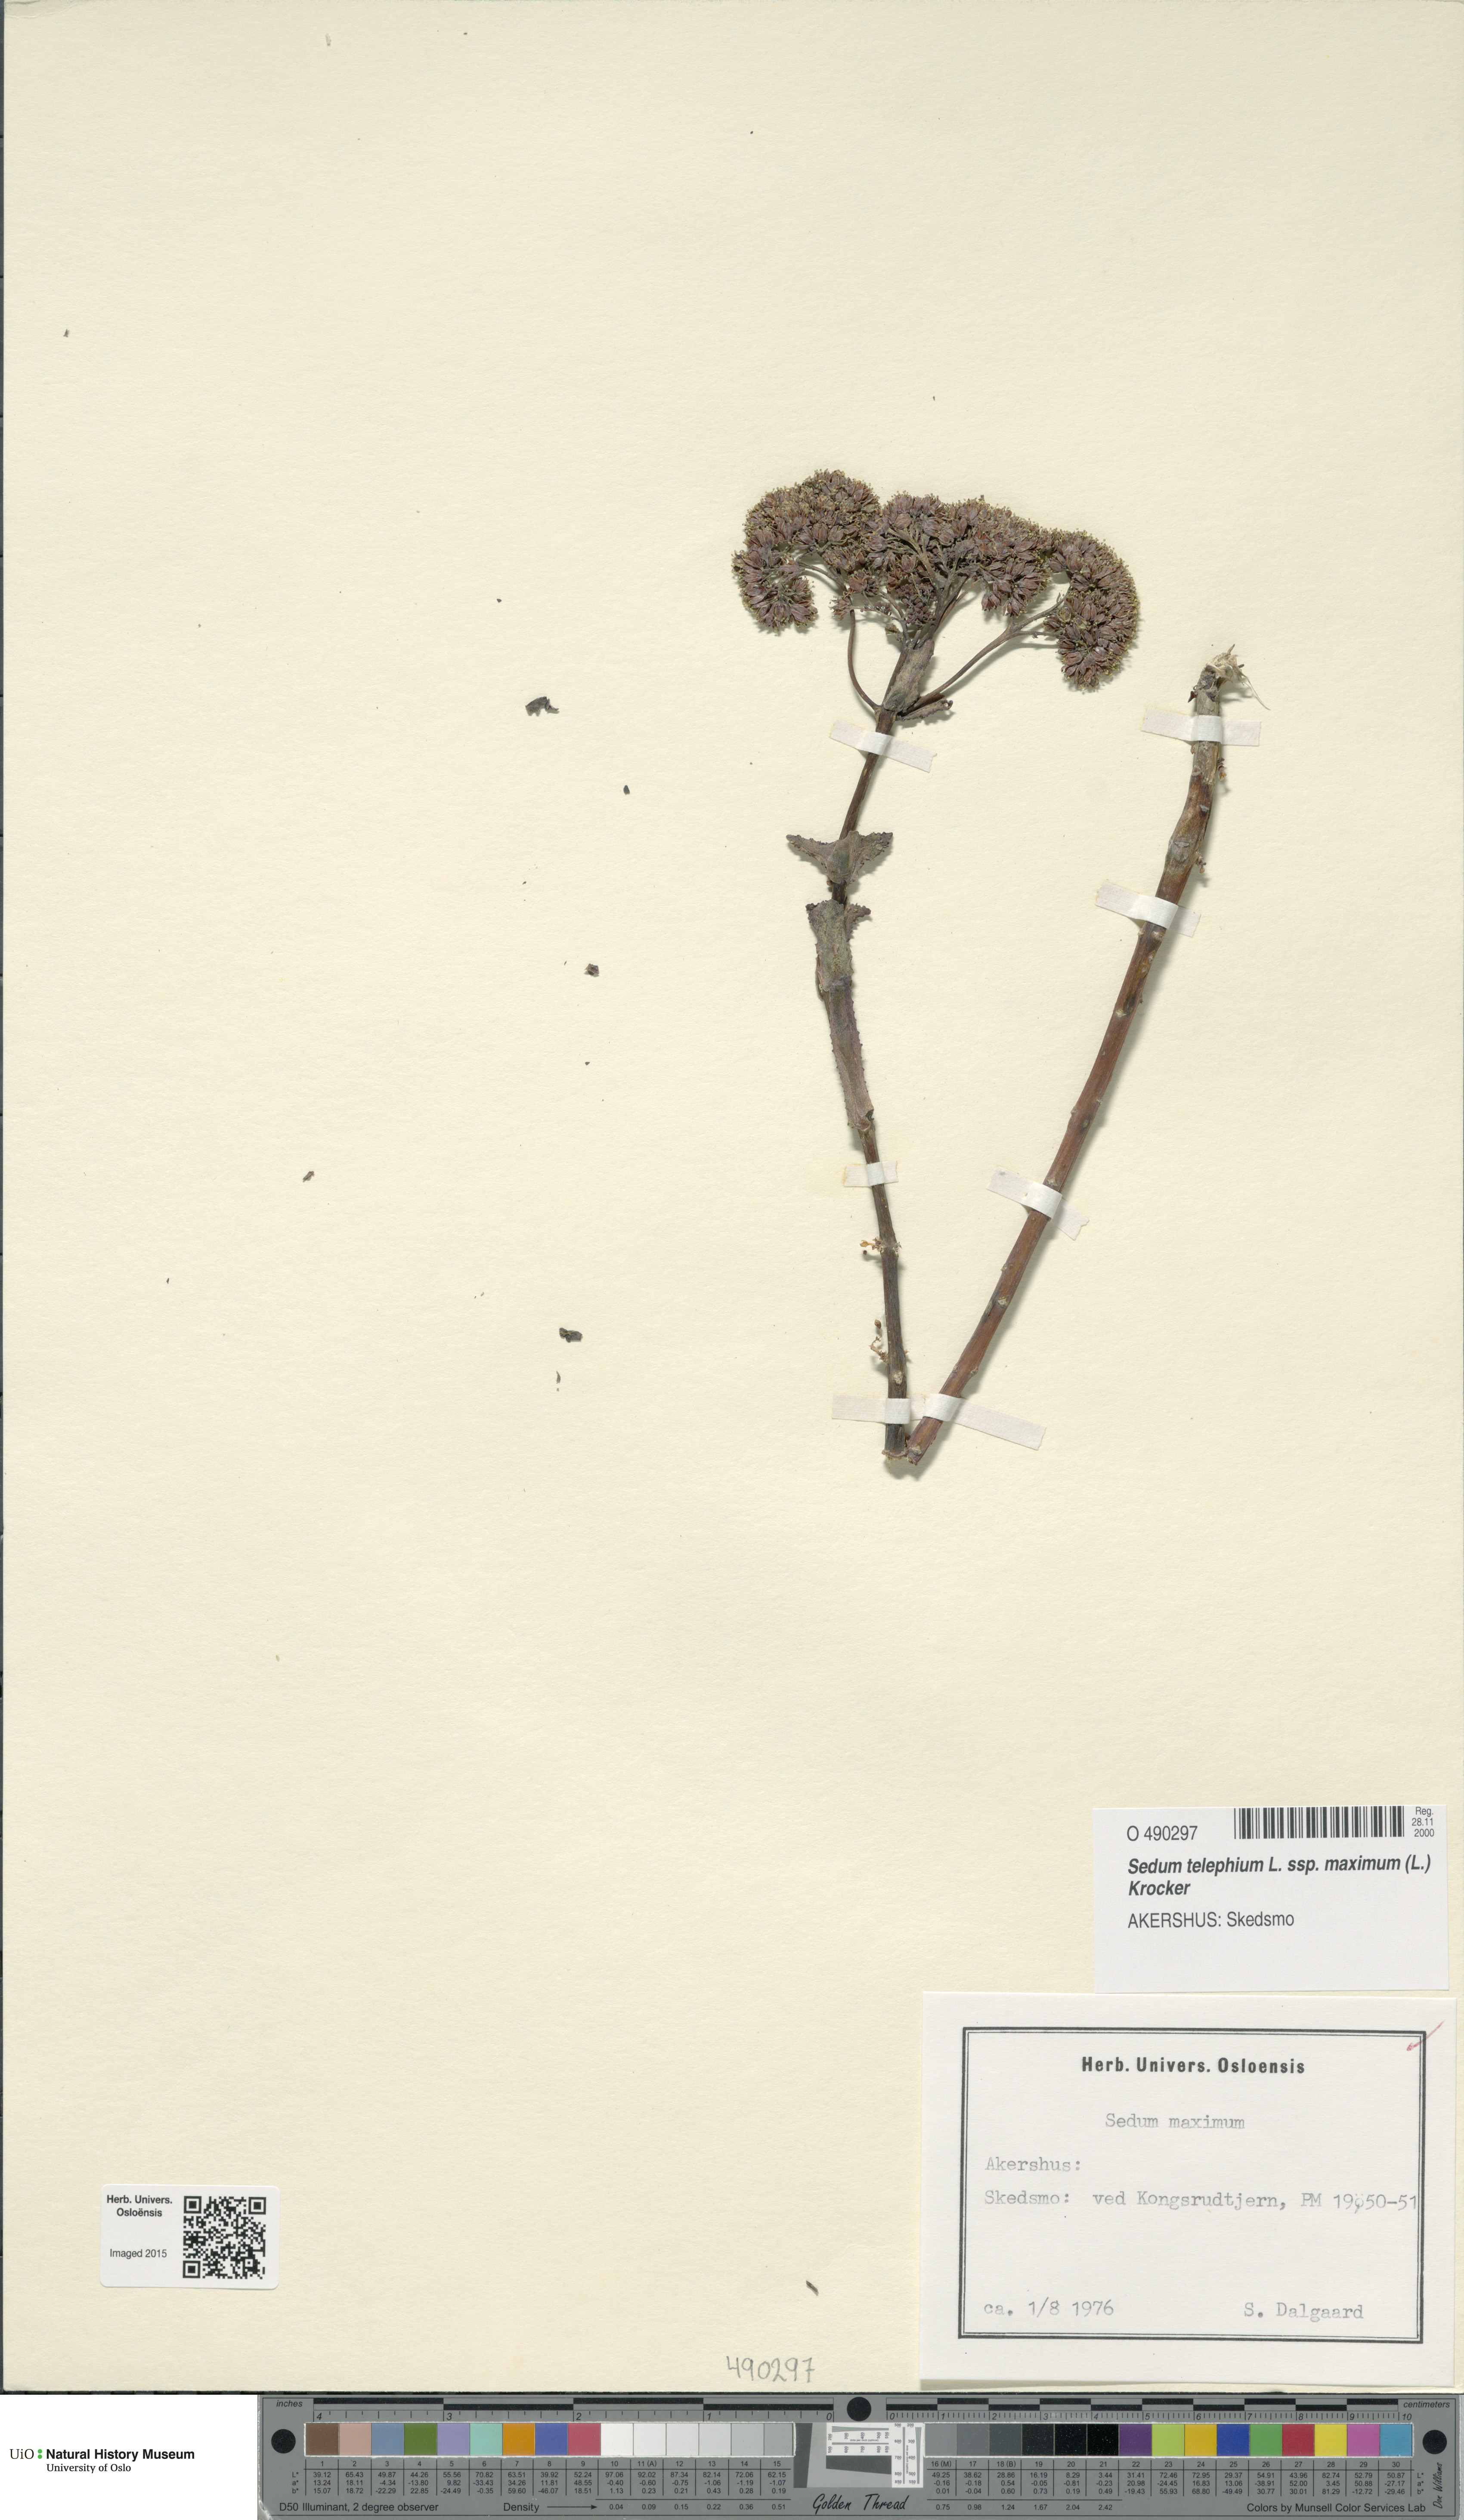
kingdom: Plantae
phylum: Tracheophyta
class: Magnoliopsida
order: Saxifragales
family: Crassulaceae
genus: Hylotelephium
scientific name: Hylotelephium maximum
